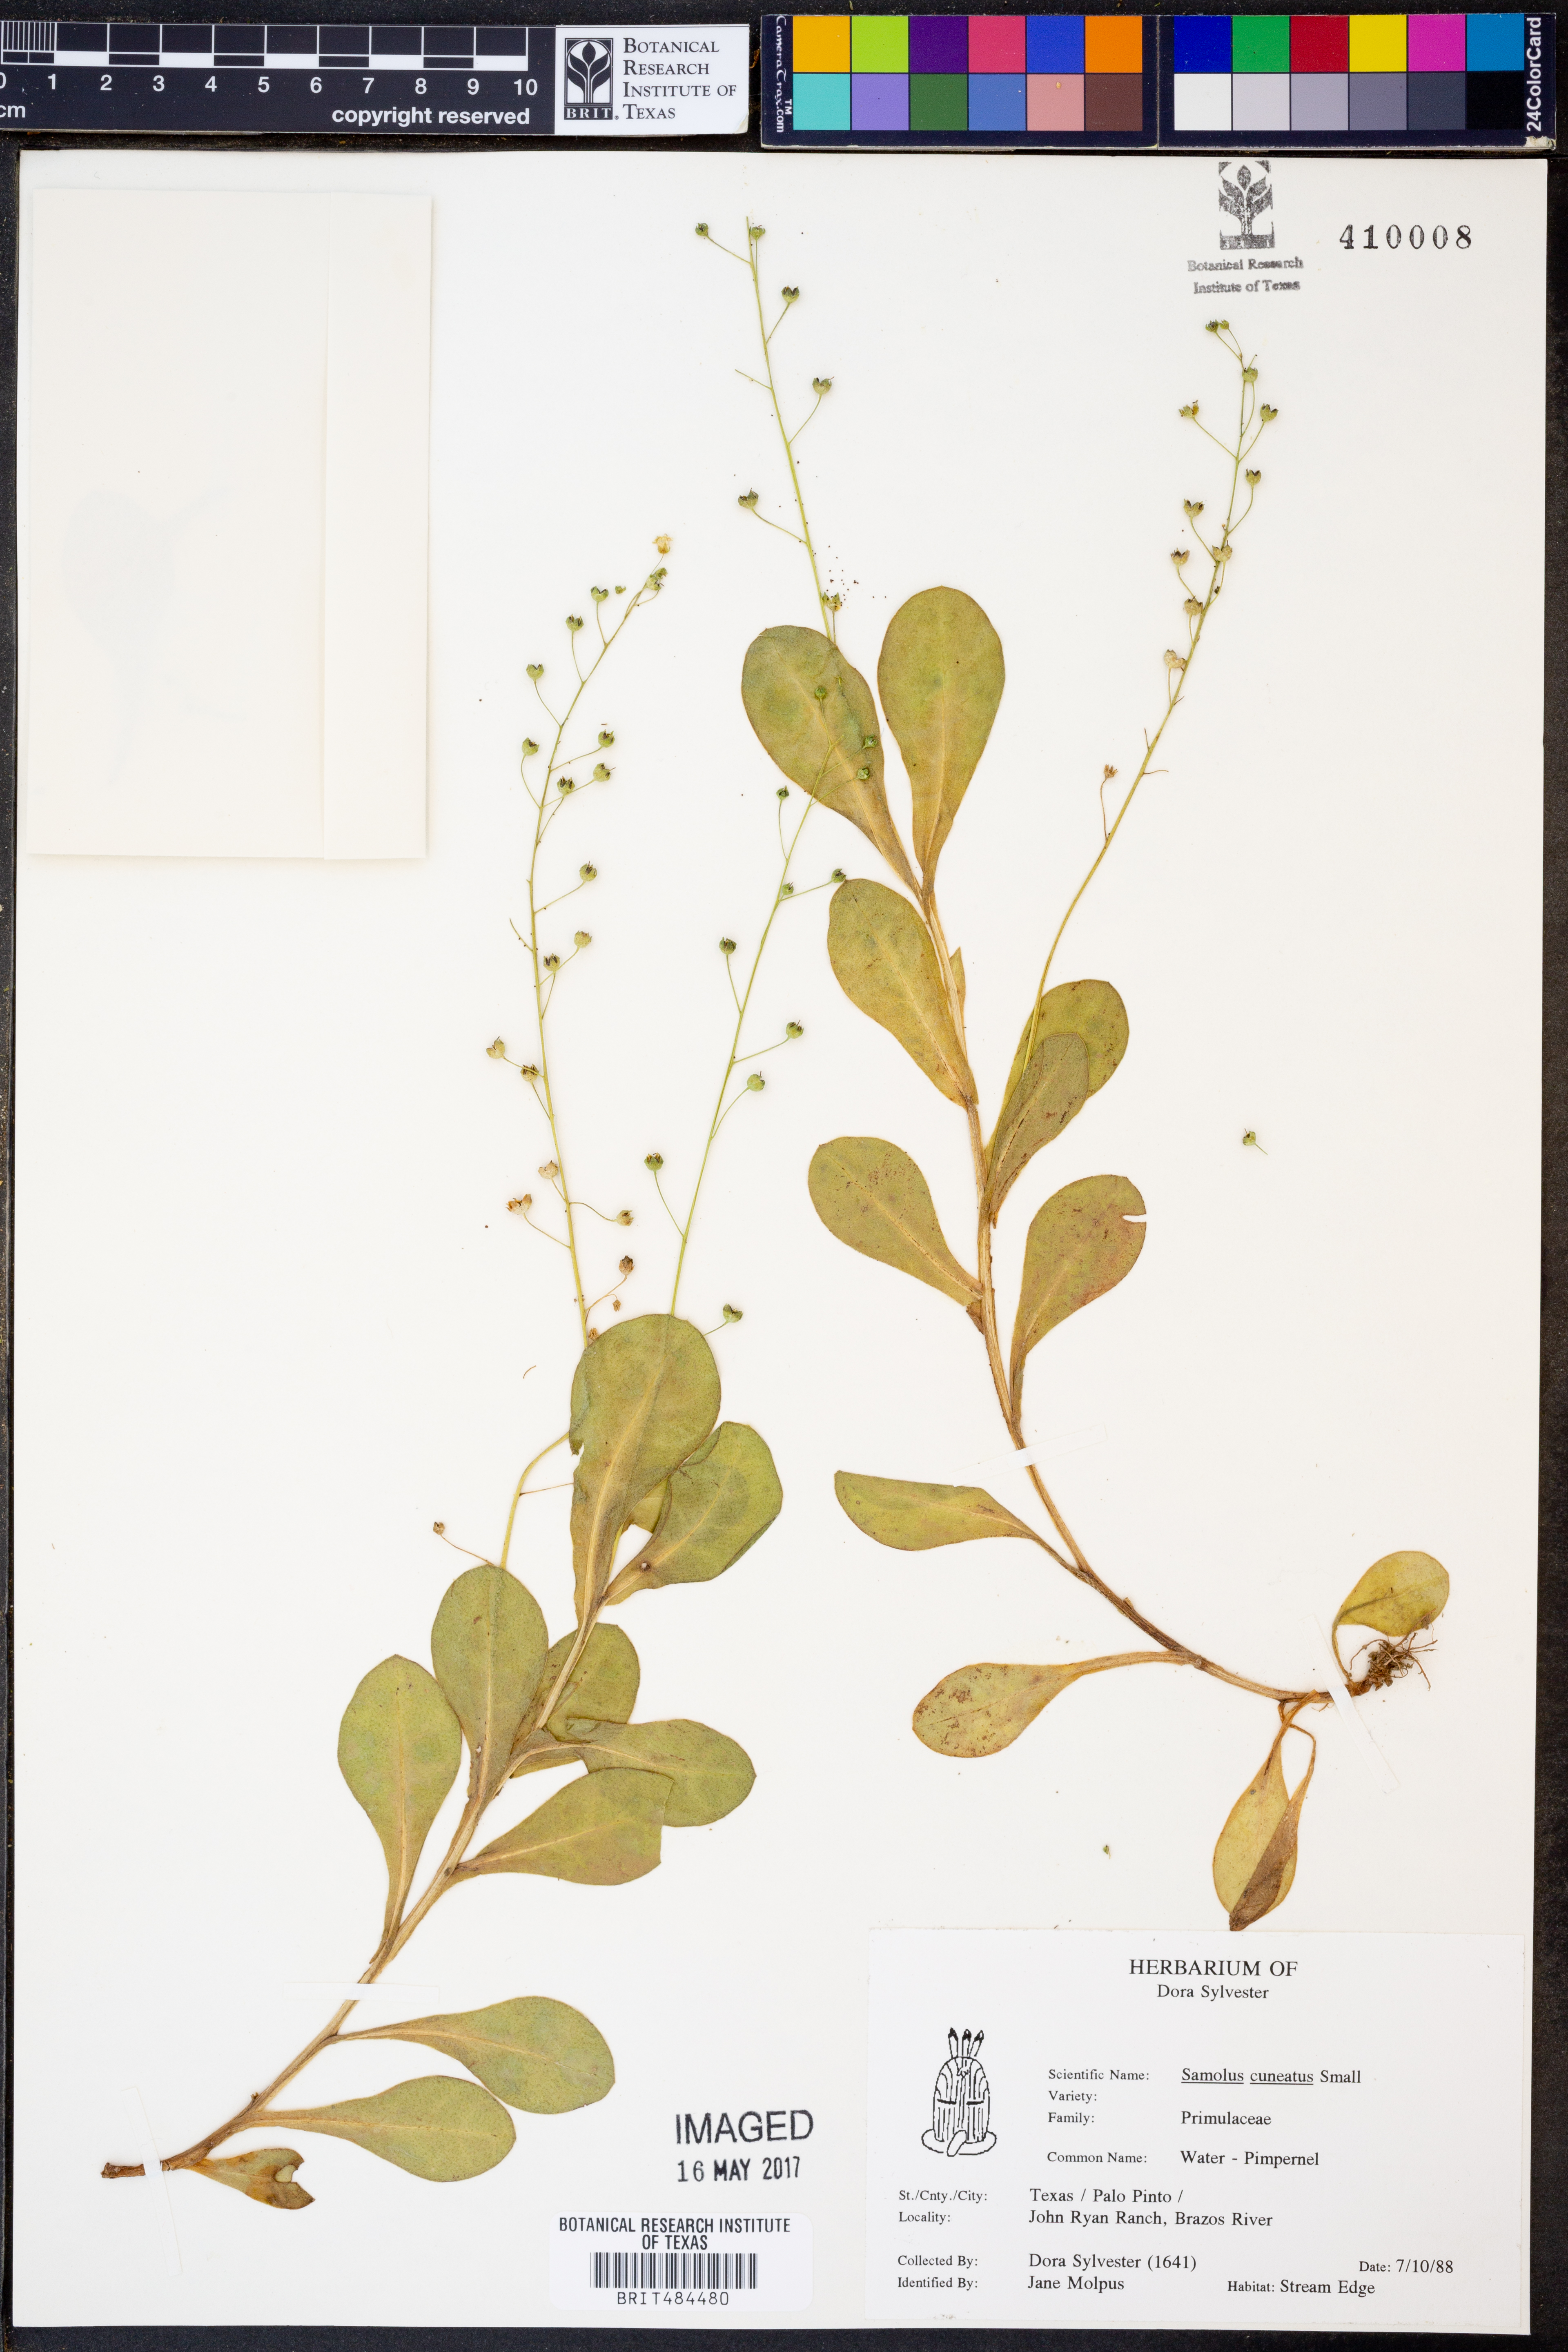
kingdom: Plantae
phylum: Tracheophyta
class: Magnoliopsida
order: Ericales
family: Primulaceae
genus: Samolus
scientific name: Samolus ebracteatus
